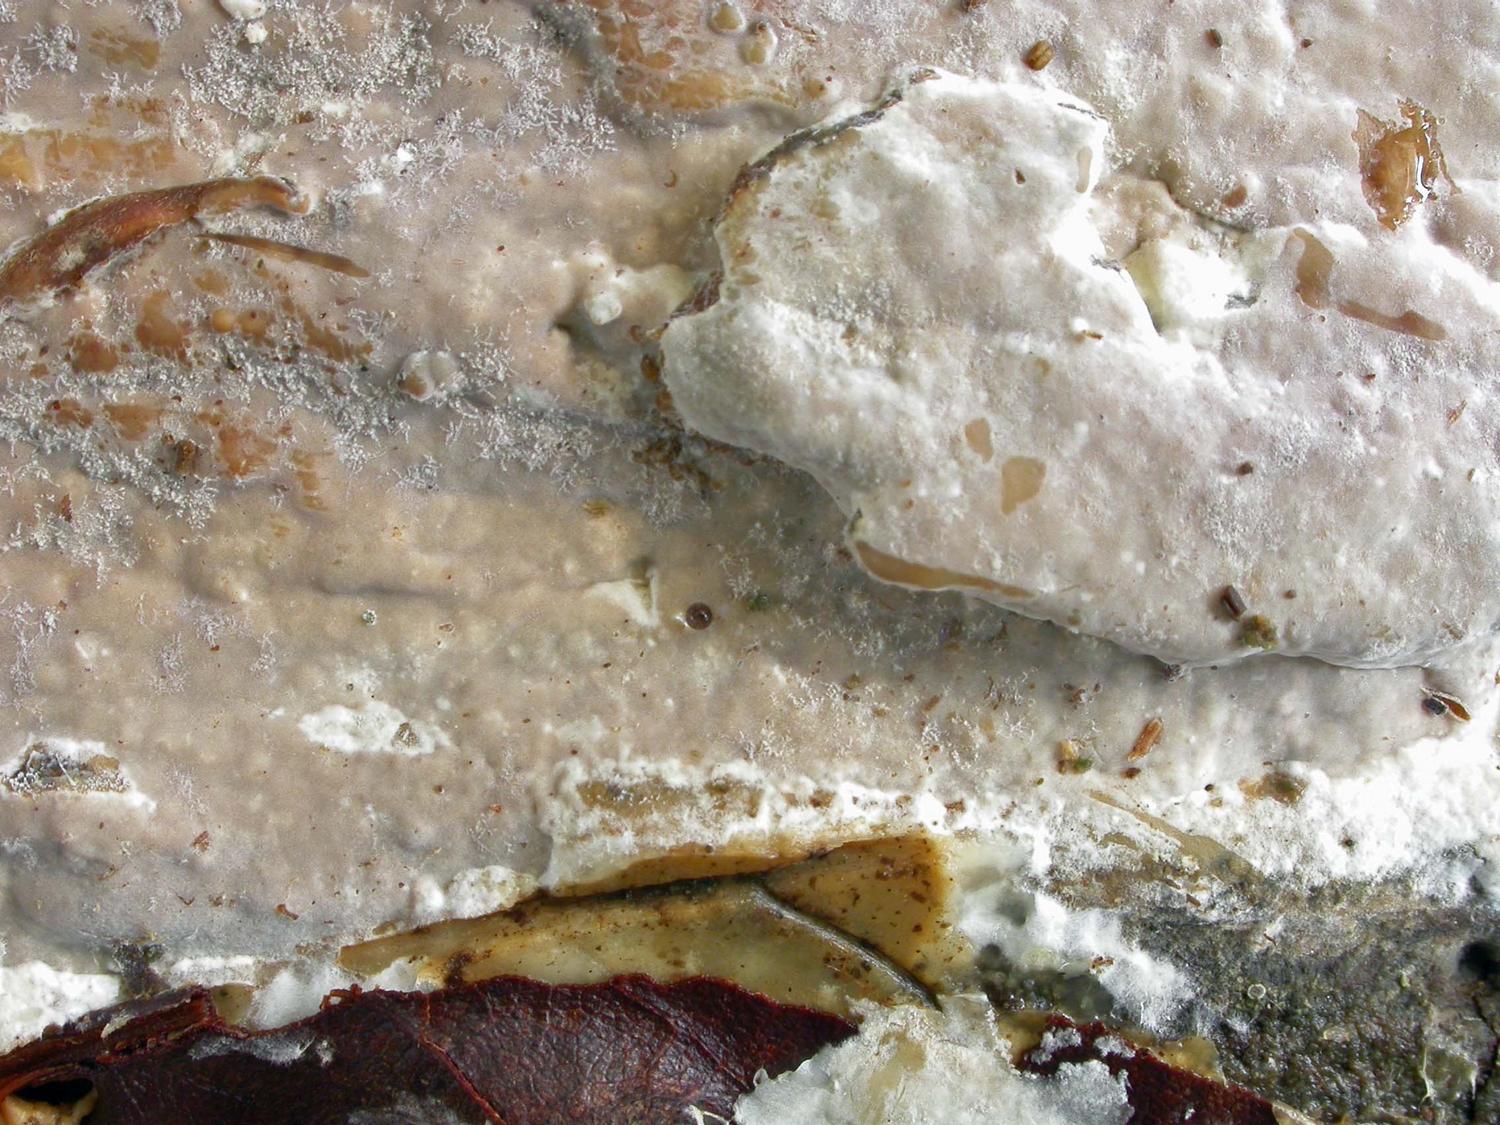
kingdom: Fungi
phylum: Basidiomycota
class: Agaricomycetes
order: Russulales
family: Peniophoraceae
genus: Scytinostroma
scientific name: Scytinostroma hemidichophyticum
